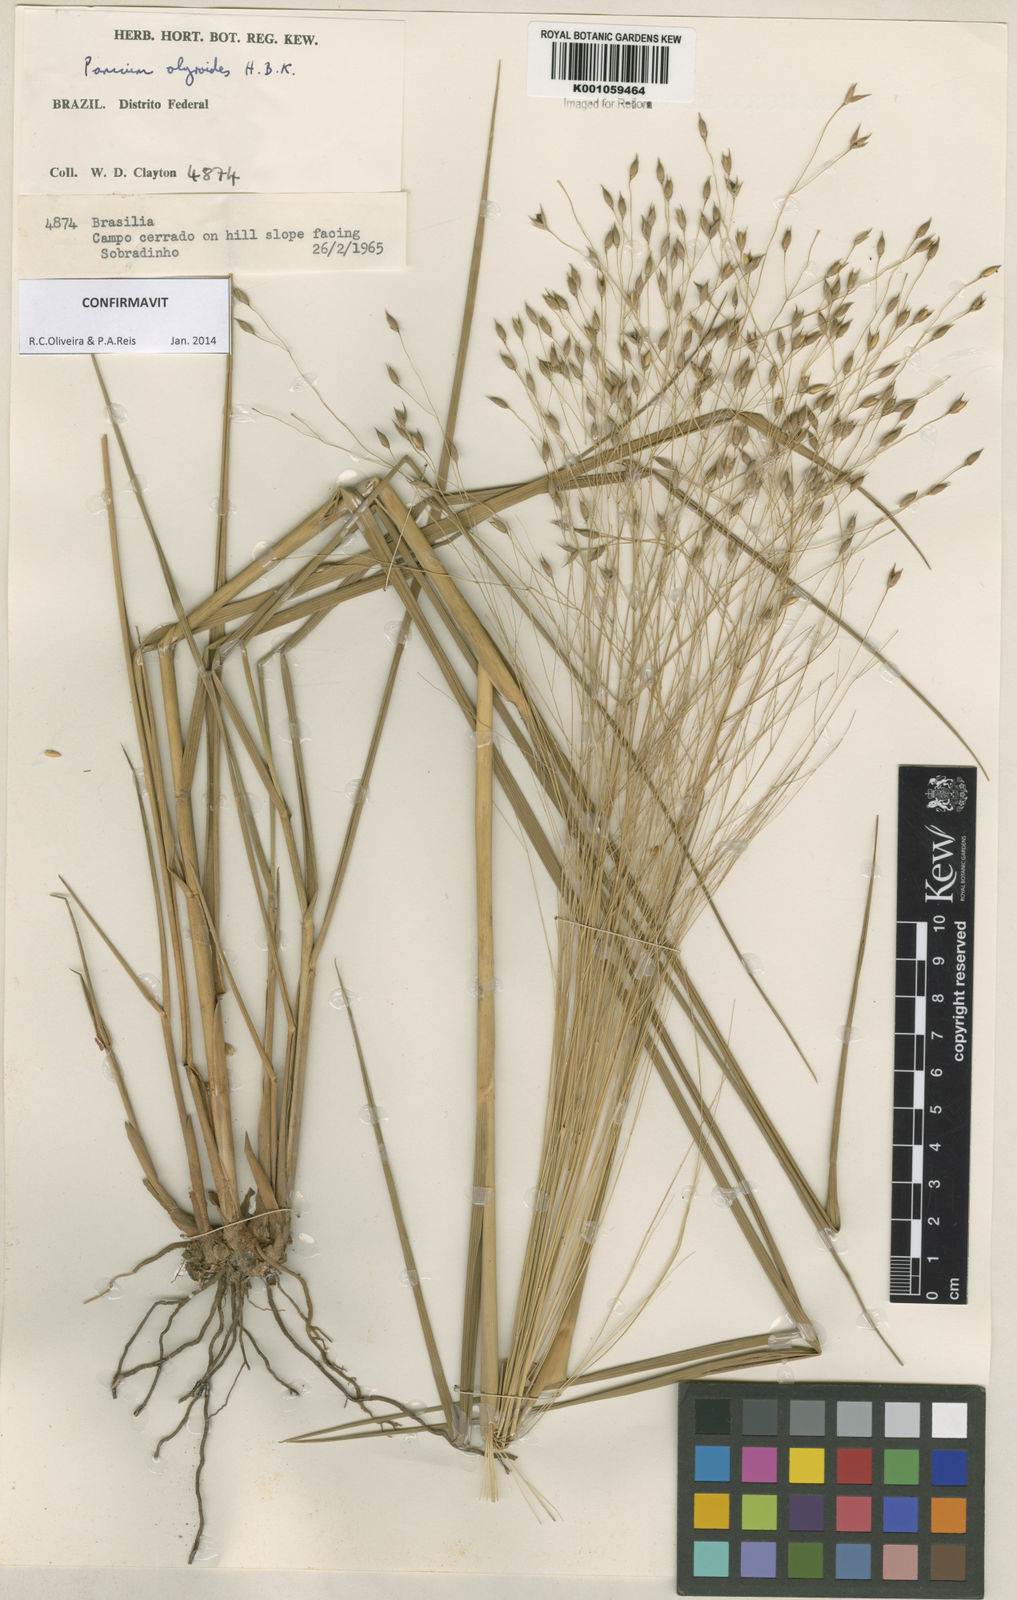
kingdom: Plantae
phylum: Tracheophyta
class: Liliopsida
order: Poales
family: Poaceae
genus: Panicum
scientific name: Panicum olyroides
